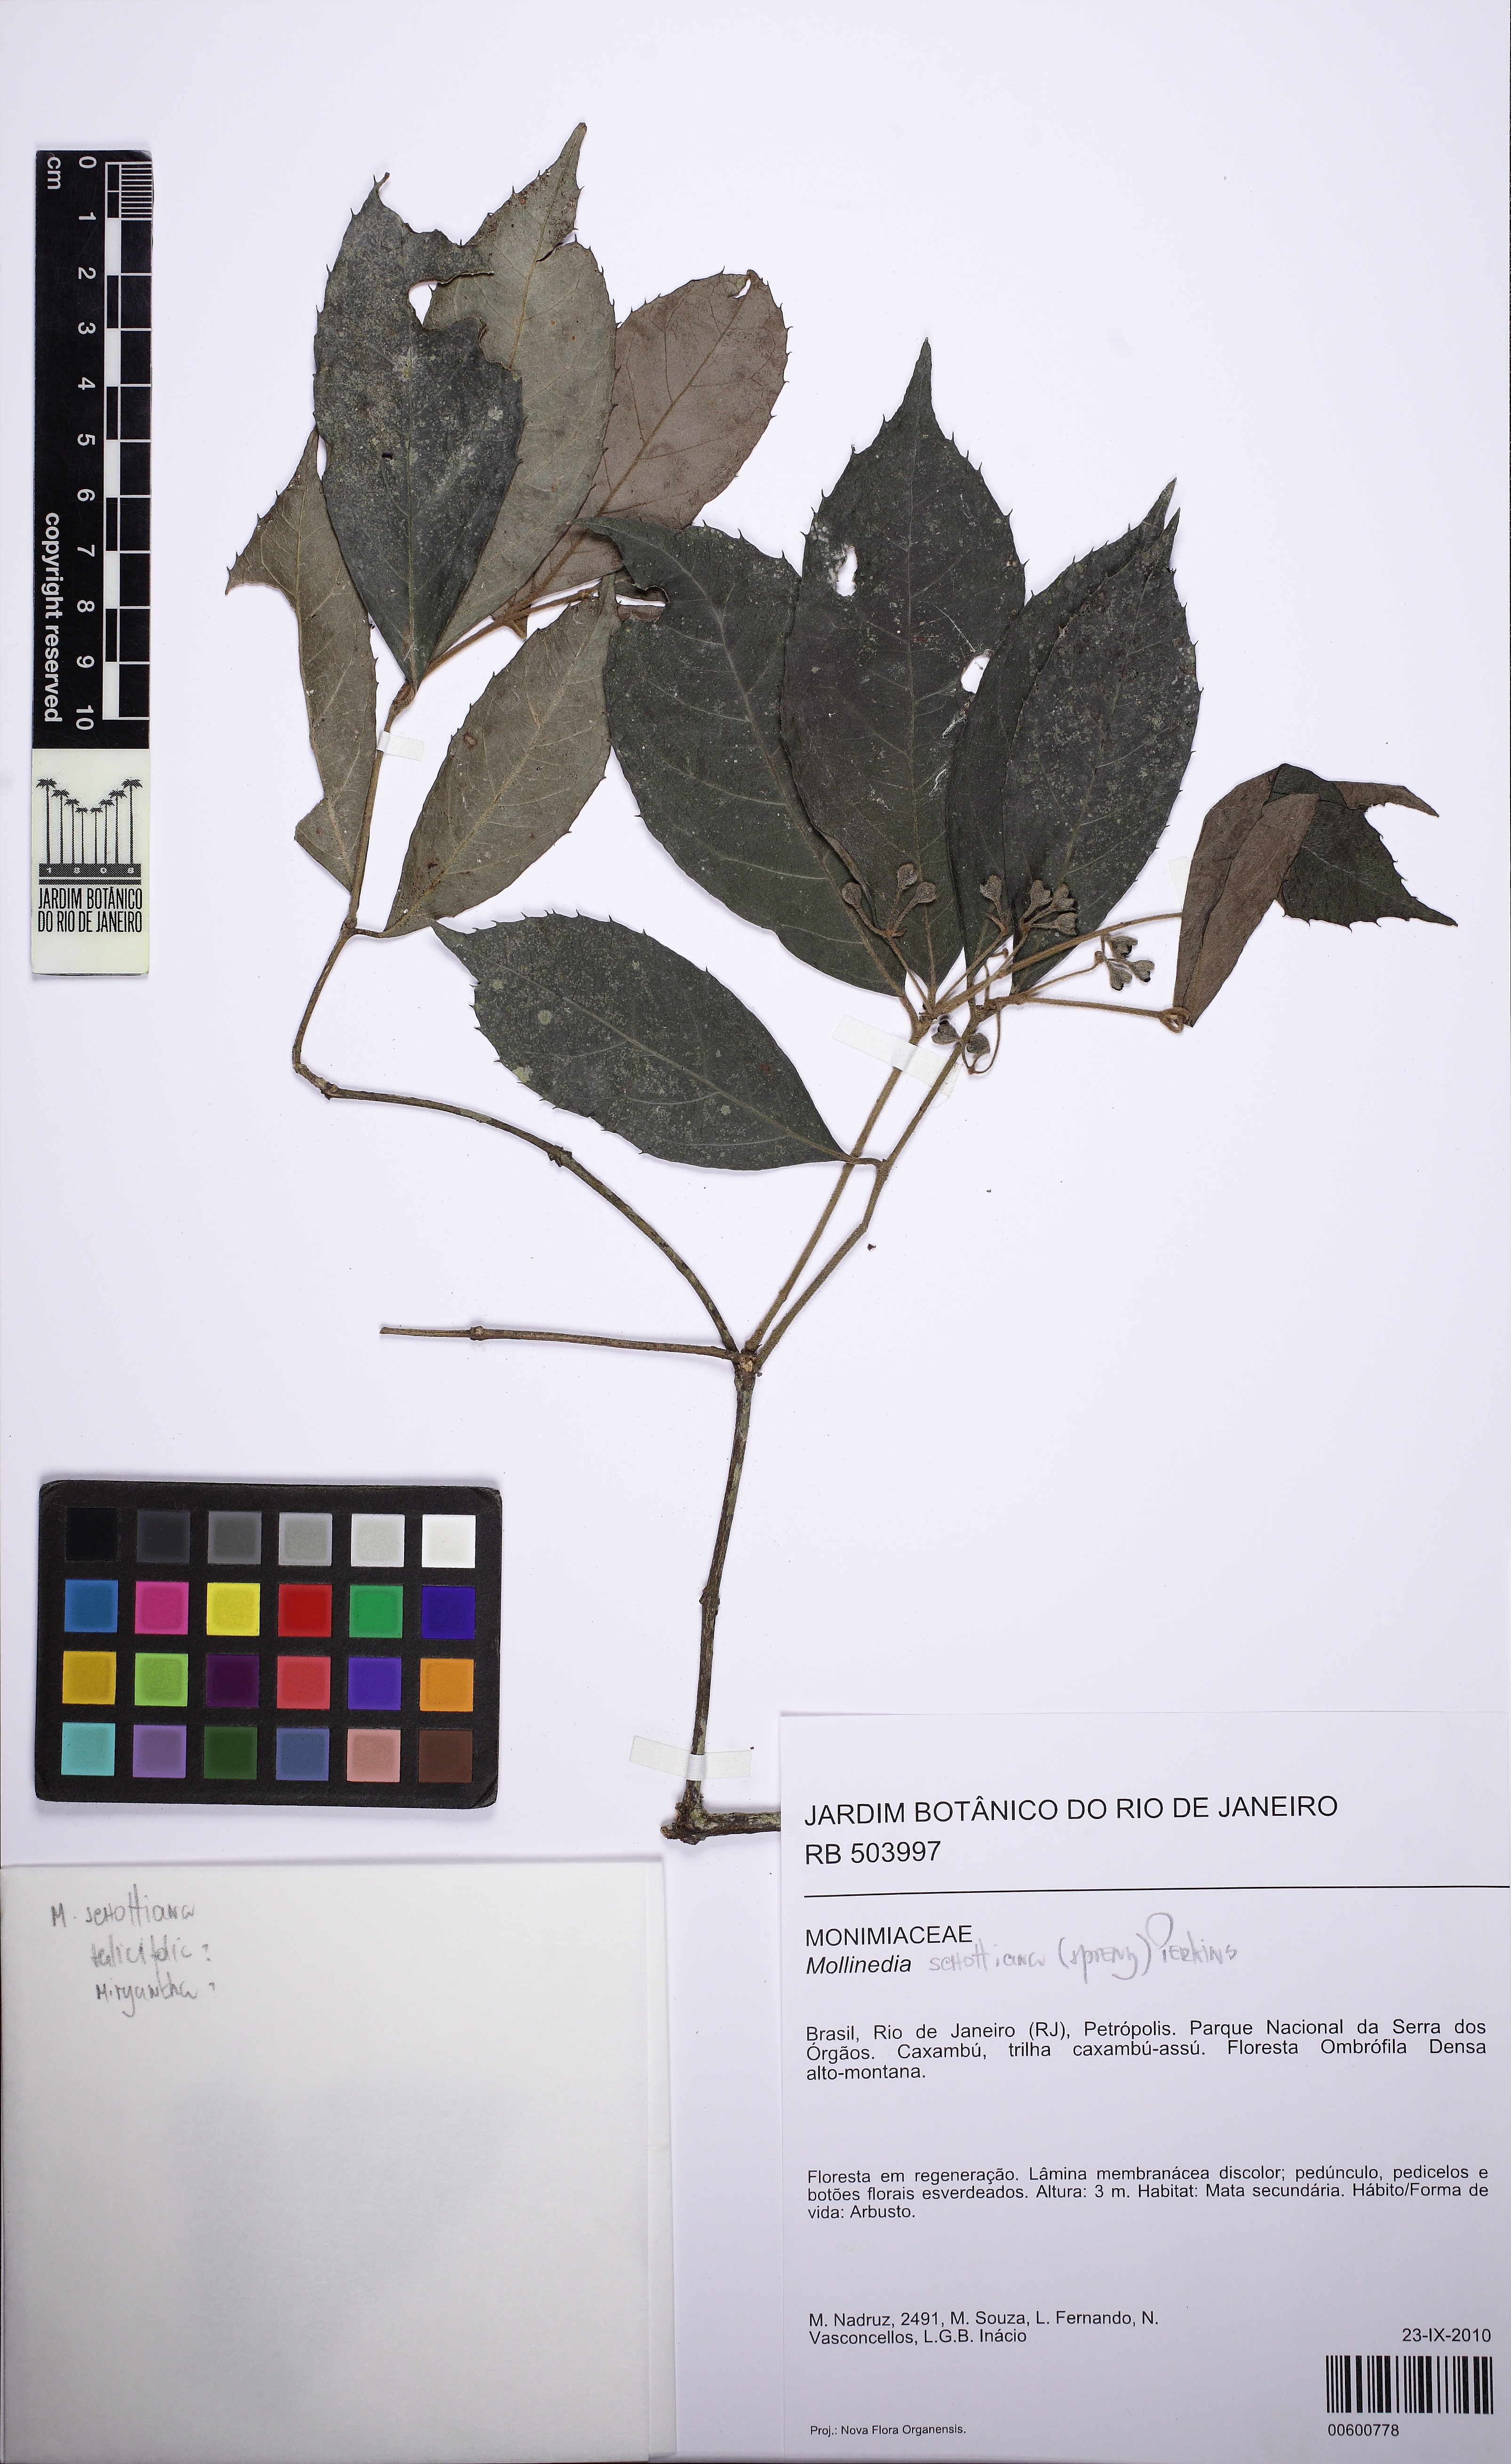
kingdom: Plantae
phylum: Tracheophyta
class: Magnoliopsida
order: Laurales
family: Monimiaceae
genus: Mollinedia
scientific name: Mollinedia umbellata
